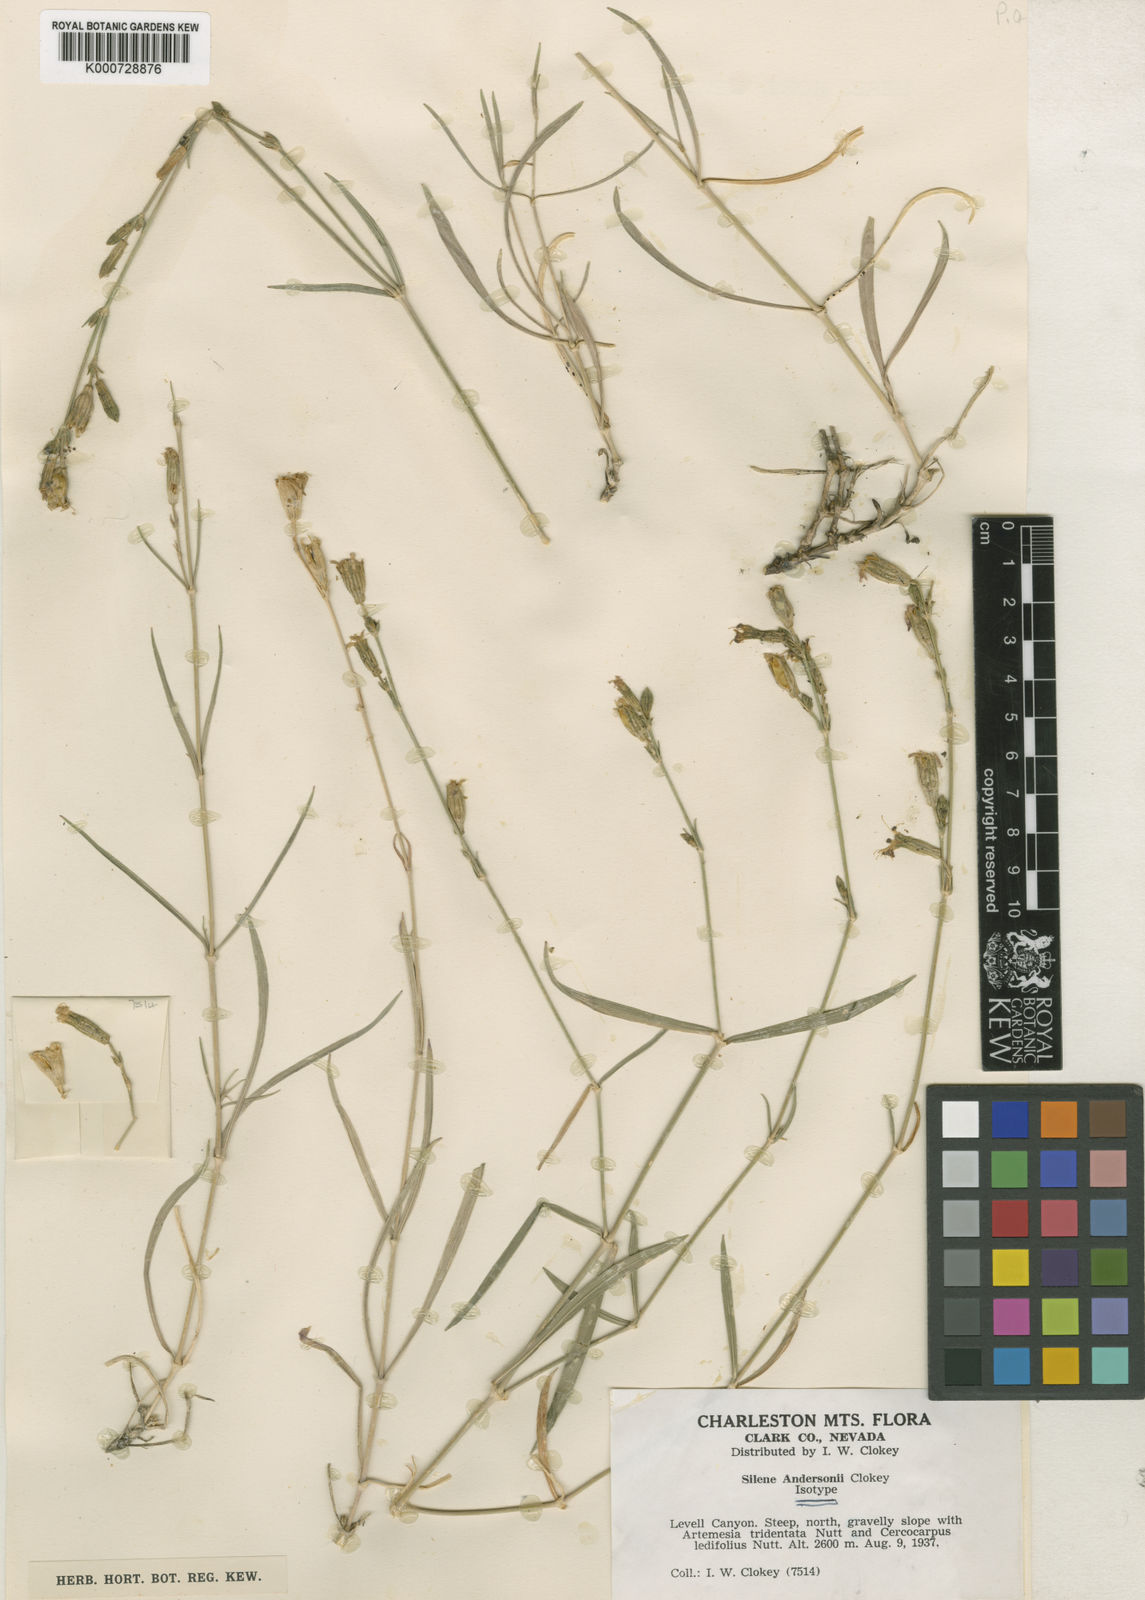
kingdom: Plantae
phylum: Tracheophyta
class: Magnoliopsida
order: Caryophyllales
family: Caryophyllaceae
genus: Silene
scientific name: Silene verecunda
